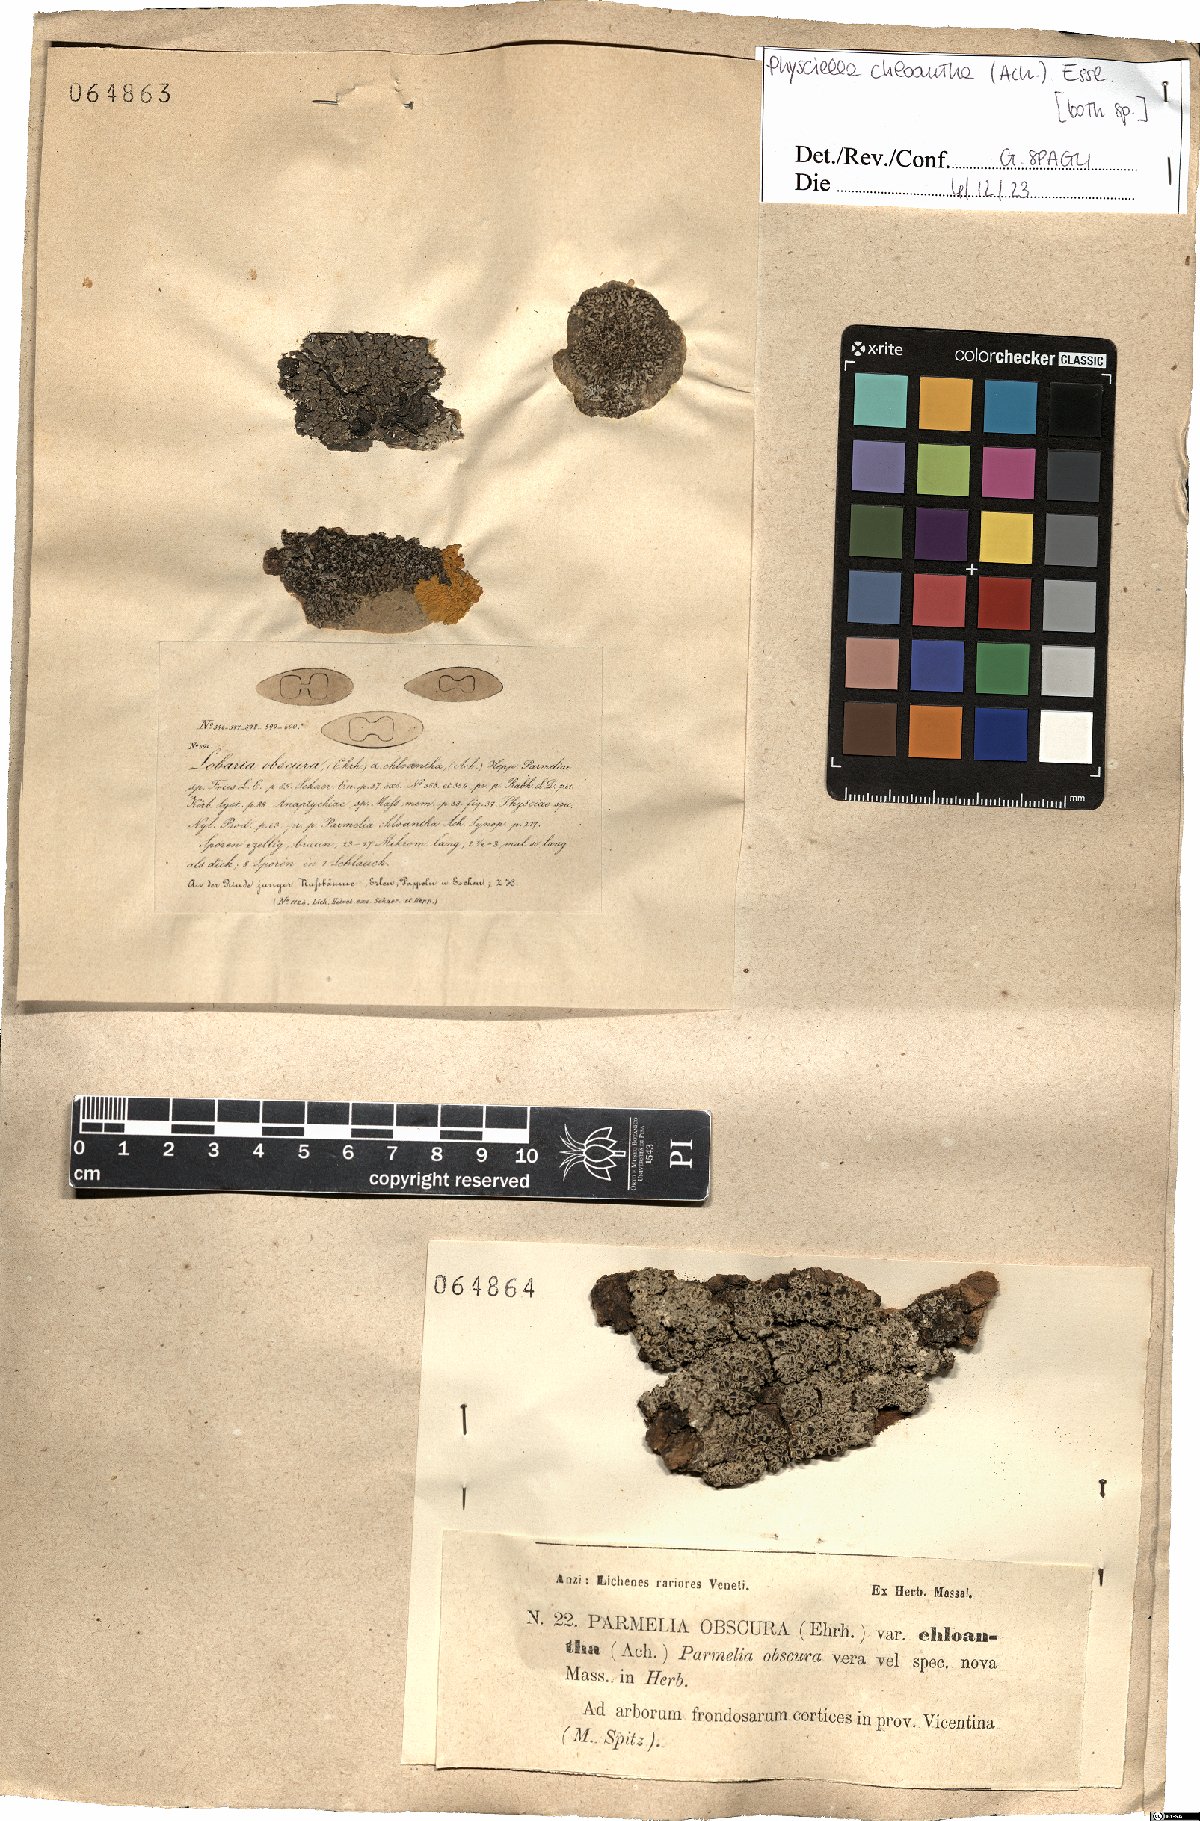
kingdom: Fungi
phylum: Ascomycota
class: Lecanoromycetes
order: Caliciales
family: Physciaceae
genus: Physciella
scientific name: Physciella chloantha
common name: Cryptic rosette lichen
